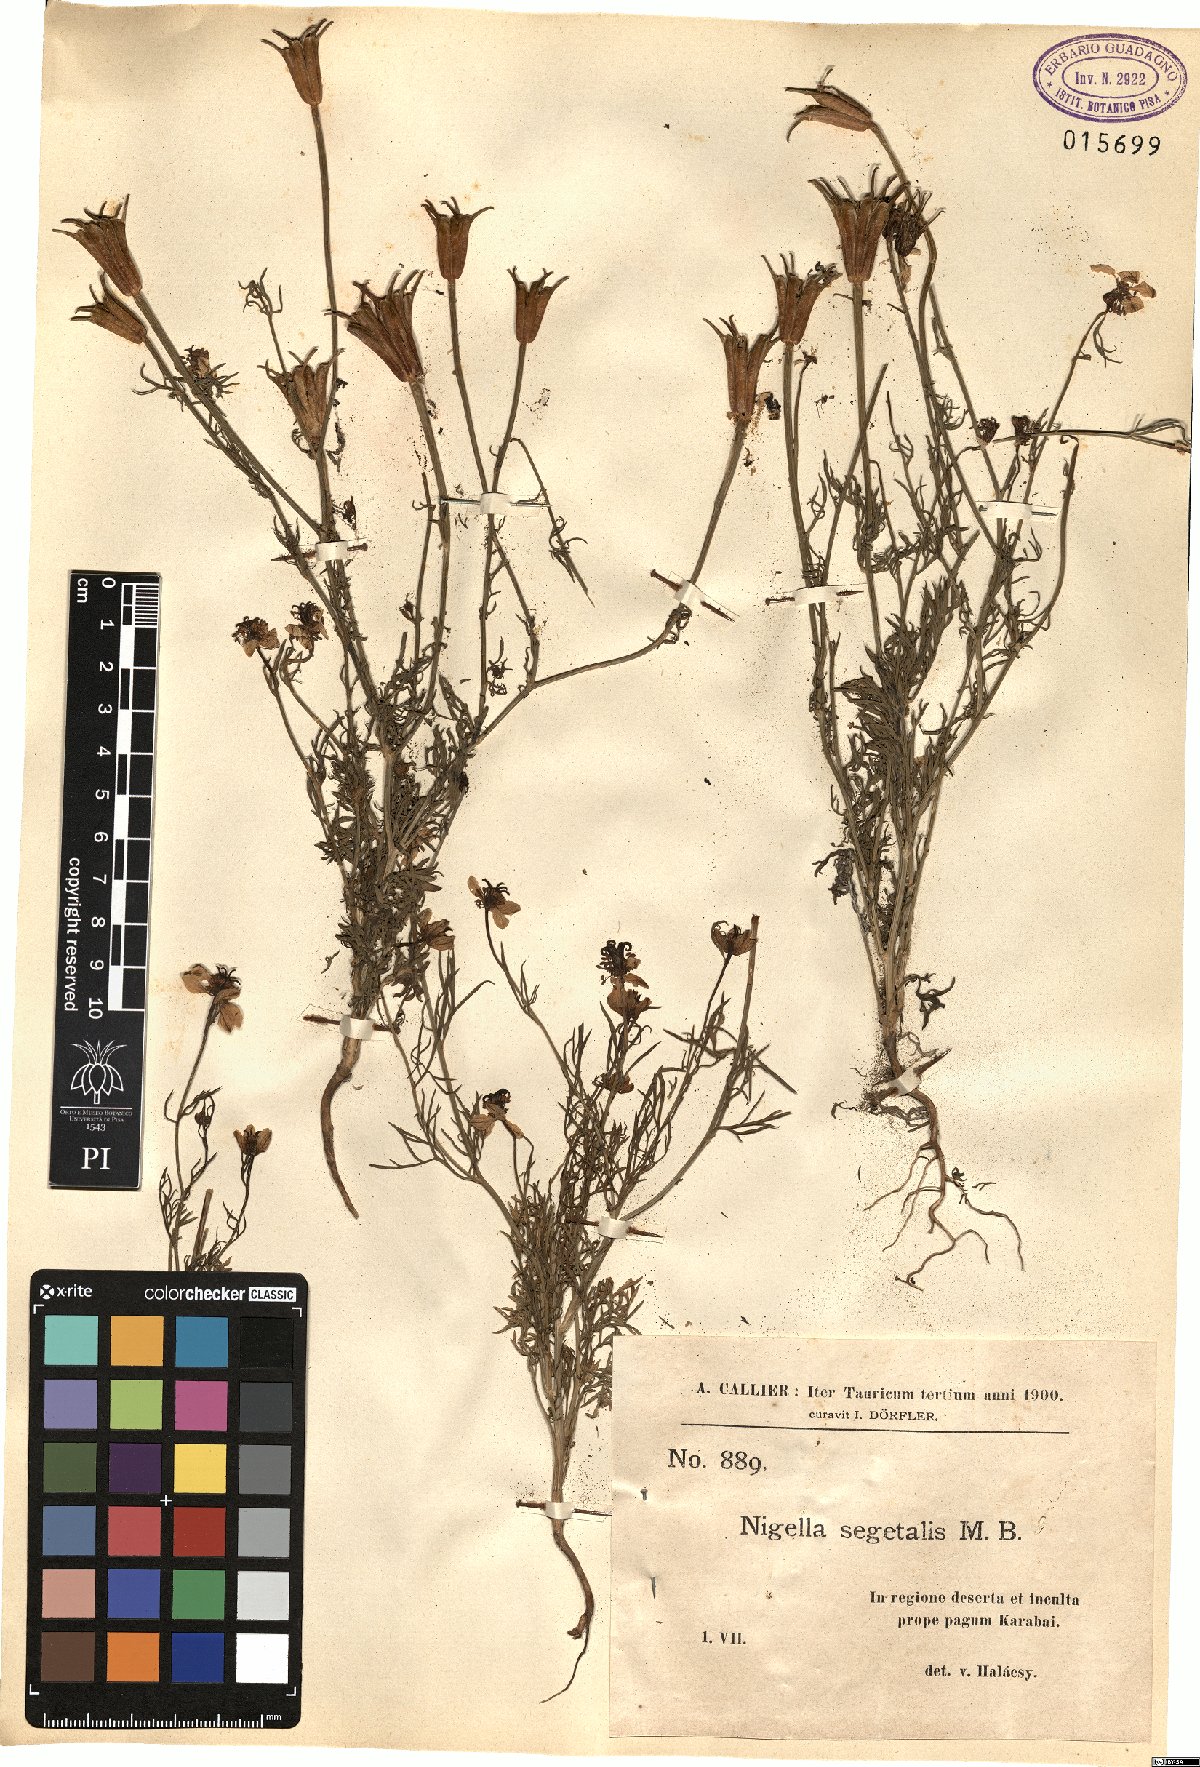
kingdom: Plantae
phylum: Tracheophyta
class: Magnoliopsida
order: Ranunculales
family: Ranunculaceae
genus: Nigella
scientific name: Nigella segetalis
